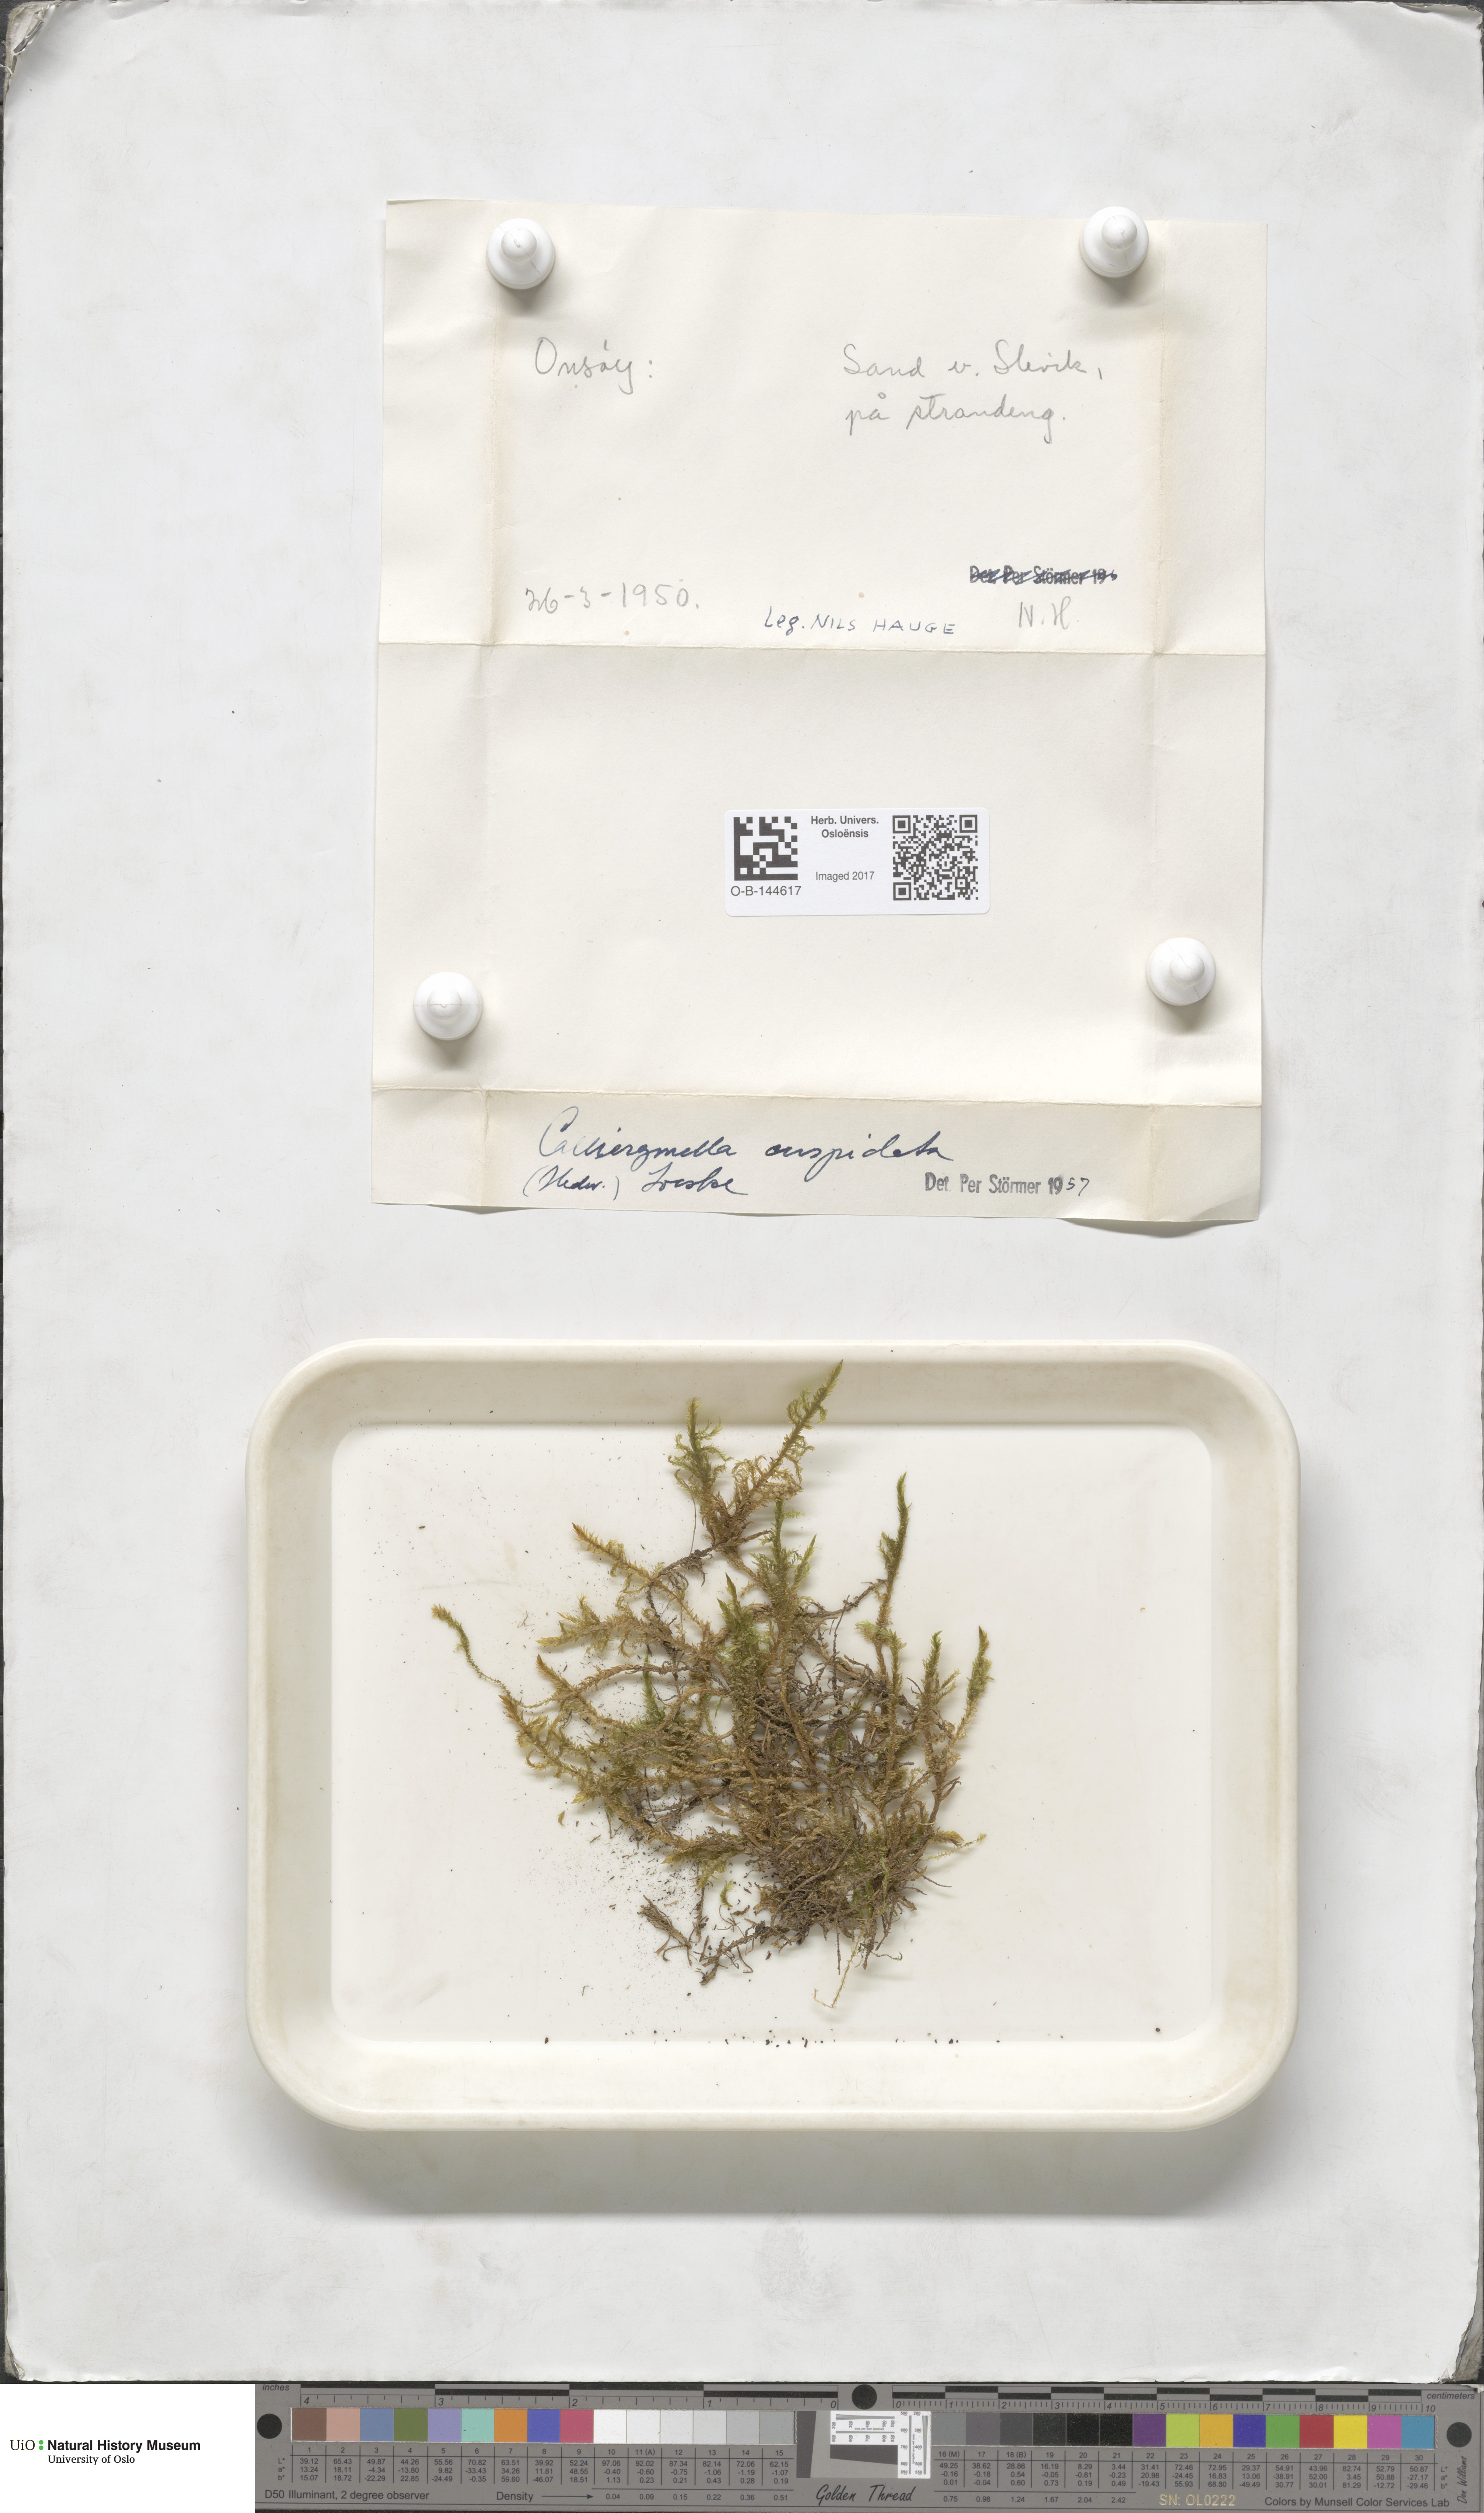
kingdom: Plantae
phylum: Bryophyta
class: Bryopsida
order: Hypnales
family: Pylaisiaceae
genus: Calliergonella
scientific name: Calliergonella cuspidata
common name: Common large wetland moss
